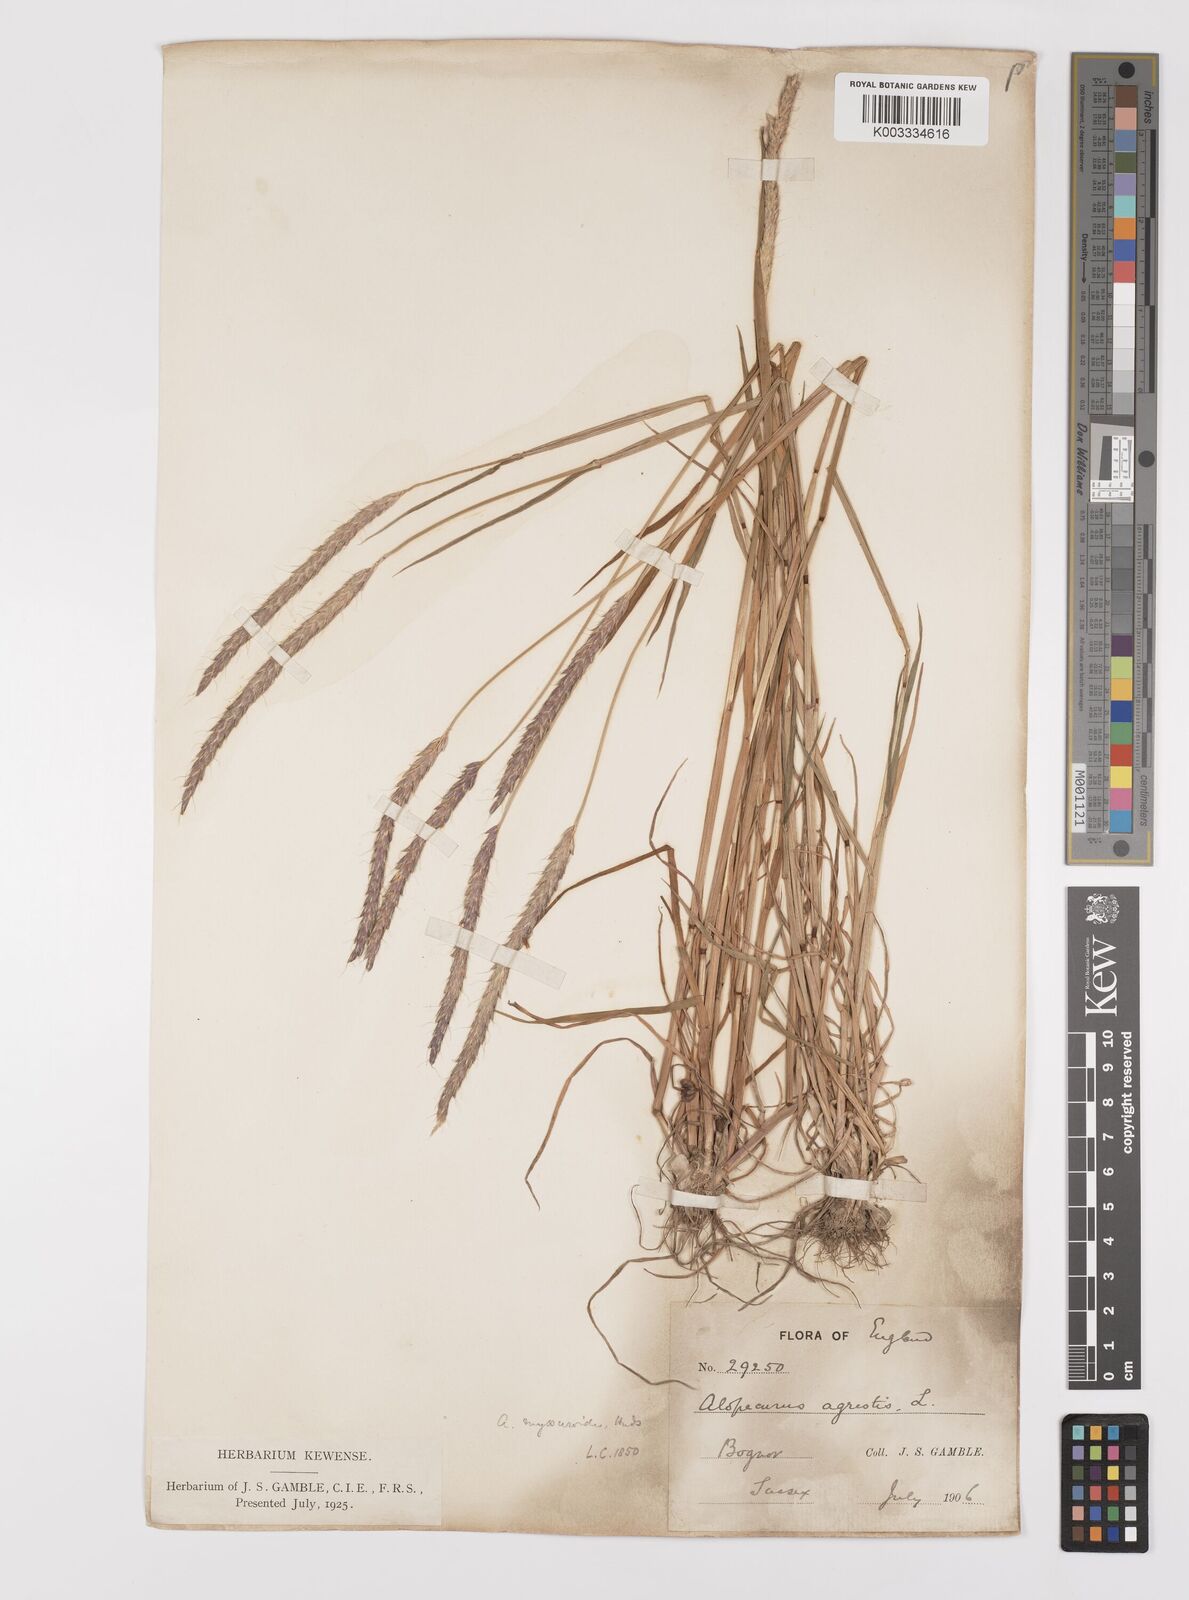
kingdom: Plantae
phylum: Tracheophyta
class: Liliopsida
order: Poales
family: Poaceae
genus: Alopecurus
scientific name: Alopecurus myosuroides
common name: Black-grass
